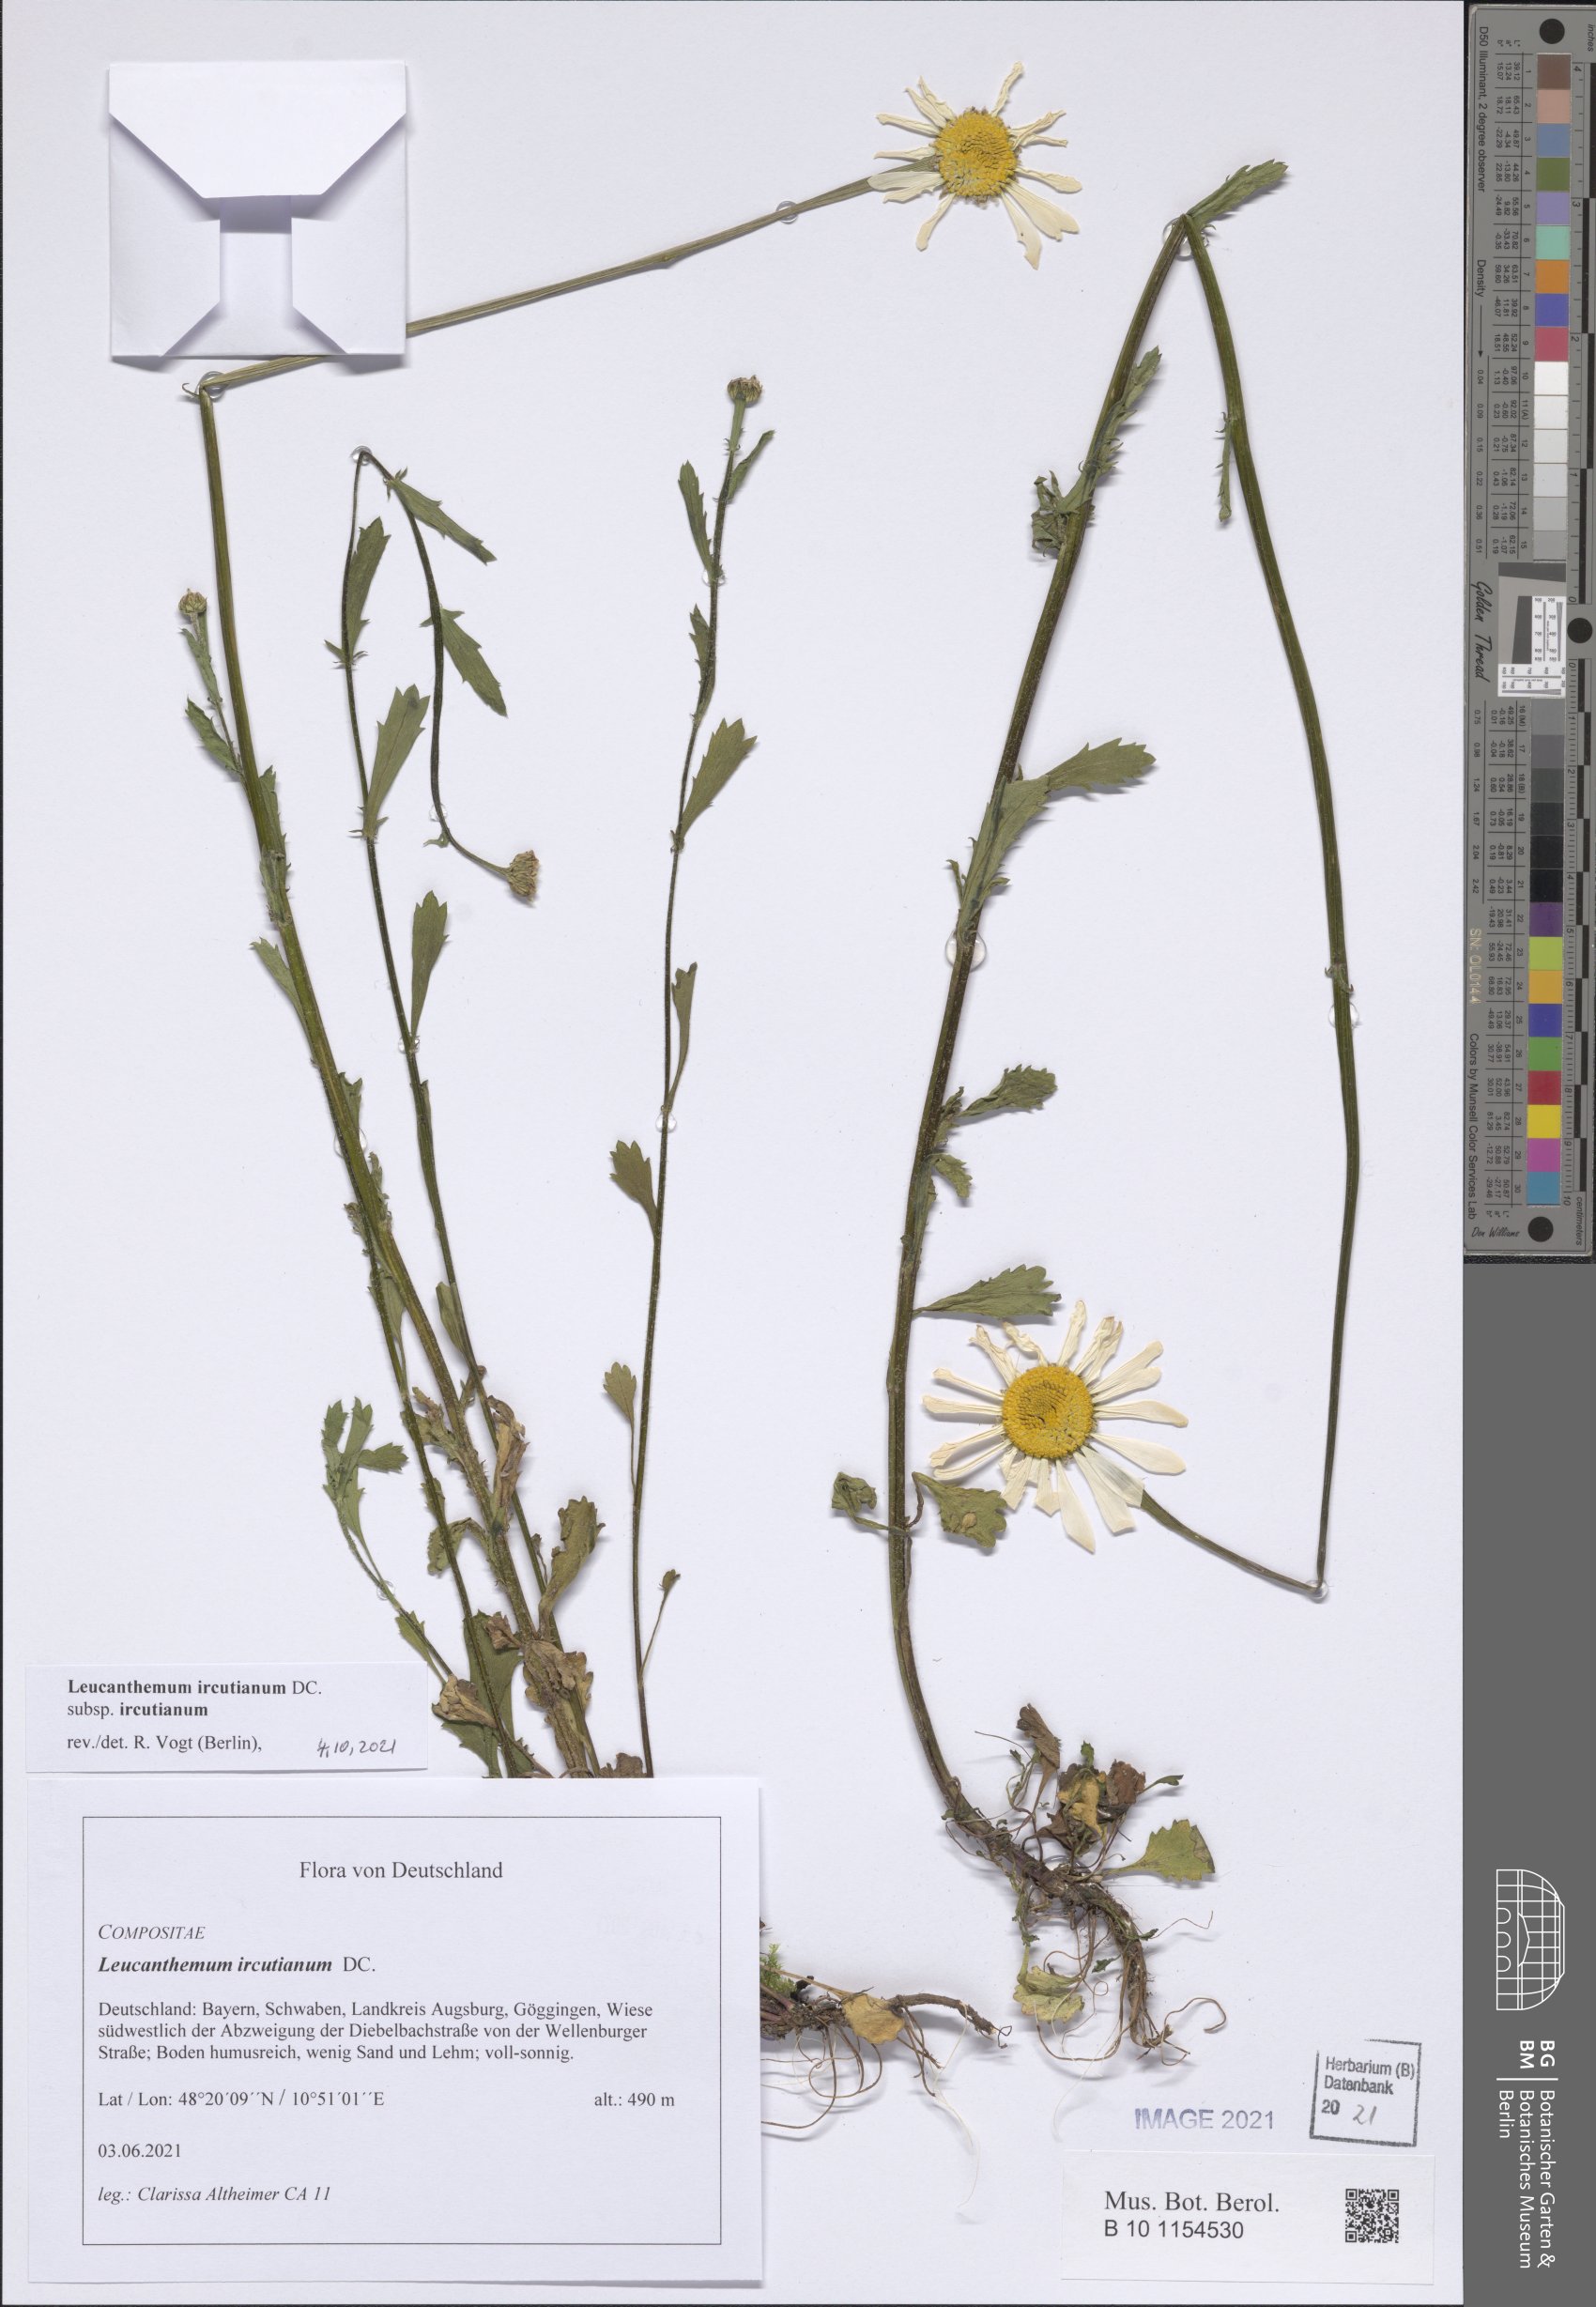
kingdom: Plantae
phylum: Tracheophyta
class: Magnoliopsida
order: Asterales
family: Asteraceae
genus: Leucanthemum
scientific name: Leucanthemum ircutianum
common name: Daisy
